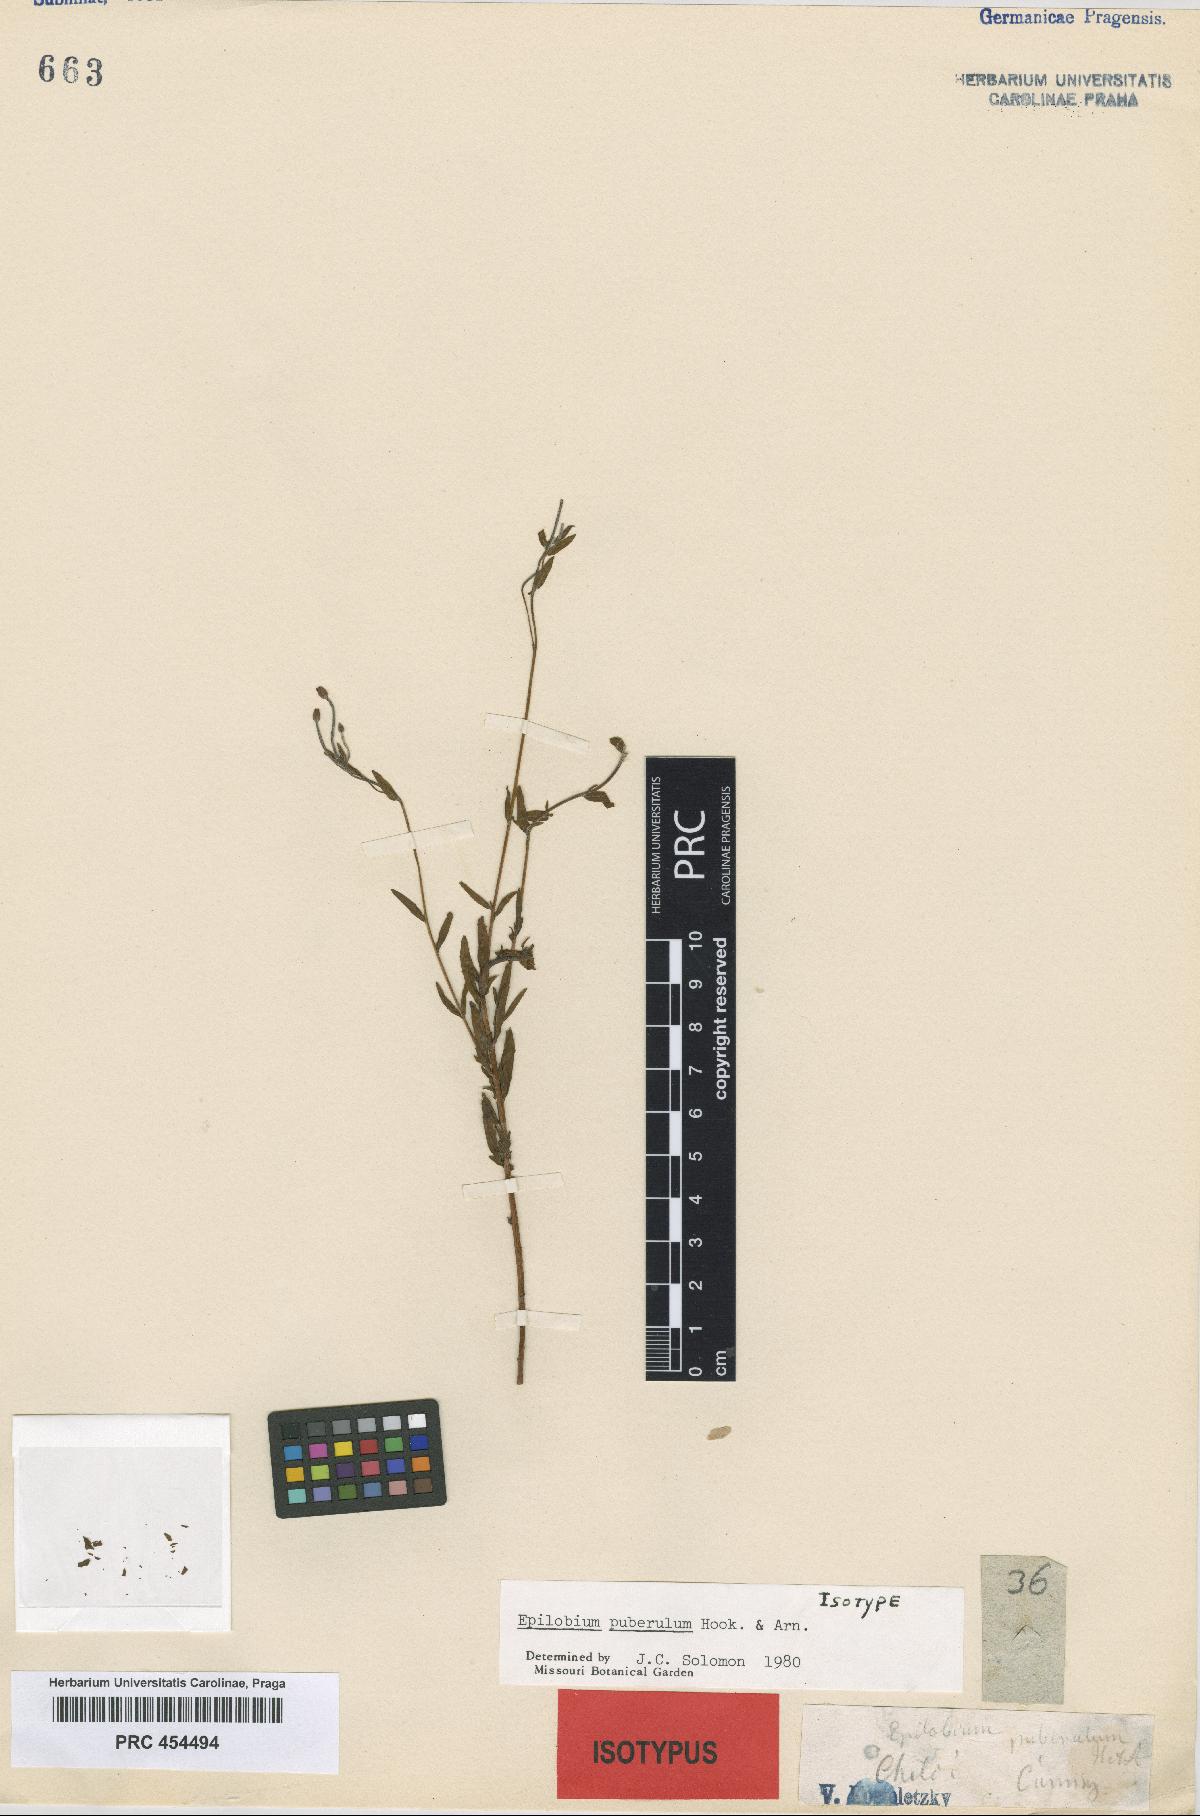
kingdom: Plantae
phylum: Tracheophyta
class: Magnoliopsida
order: Myrtales
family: Onagraceae
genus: Epilobium
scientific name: Epilobium puberulum
